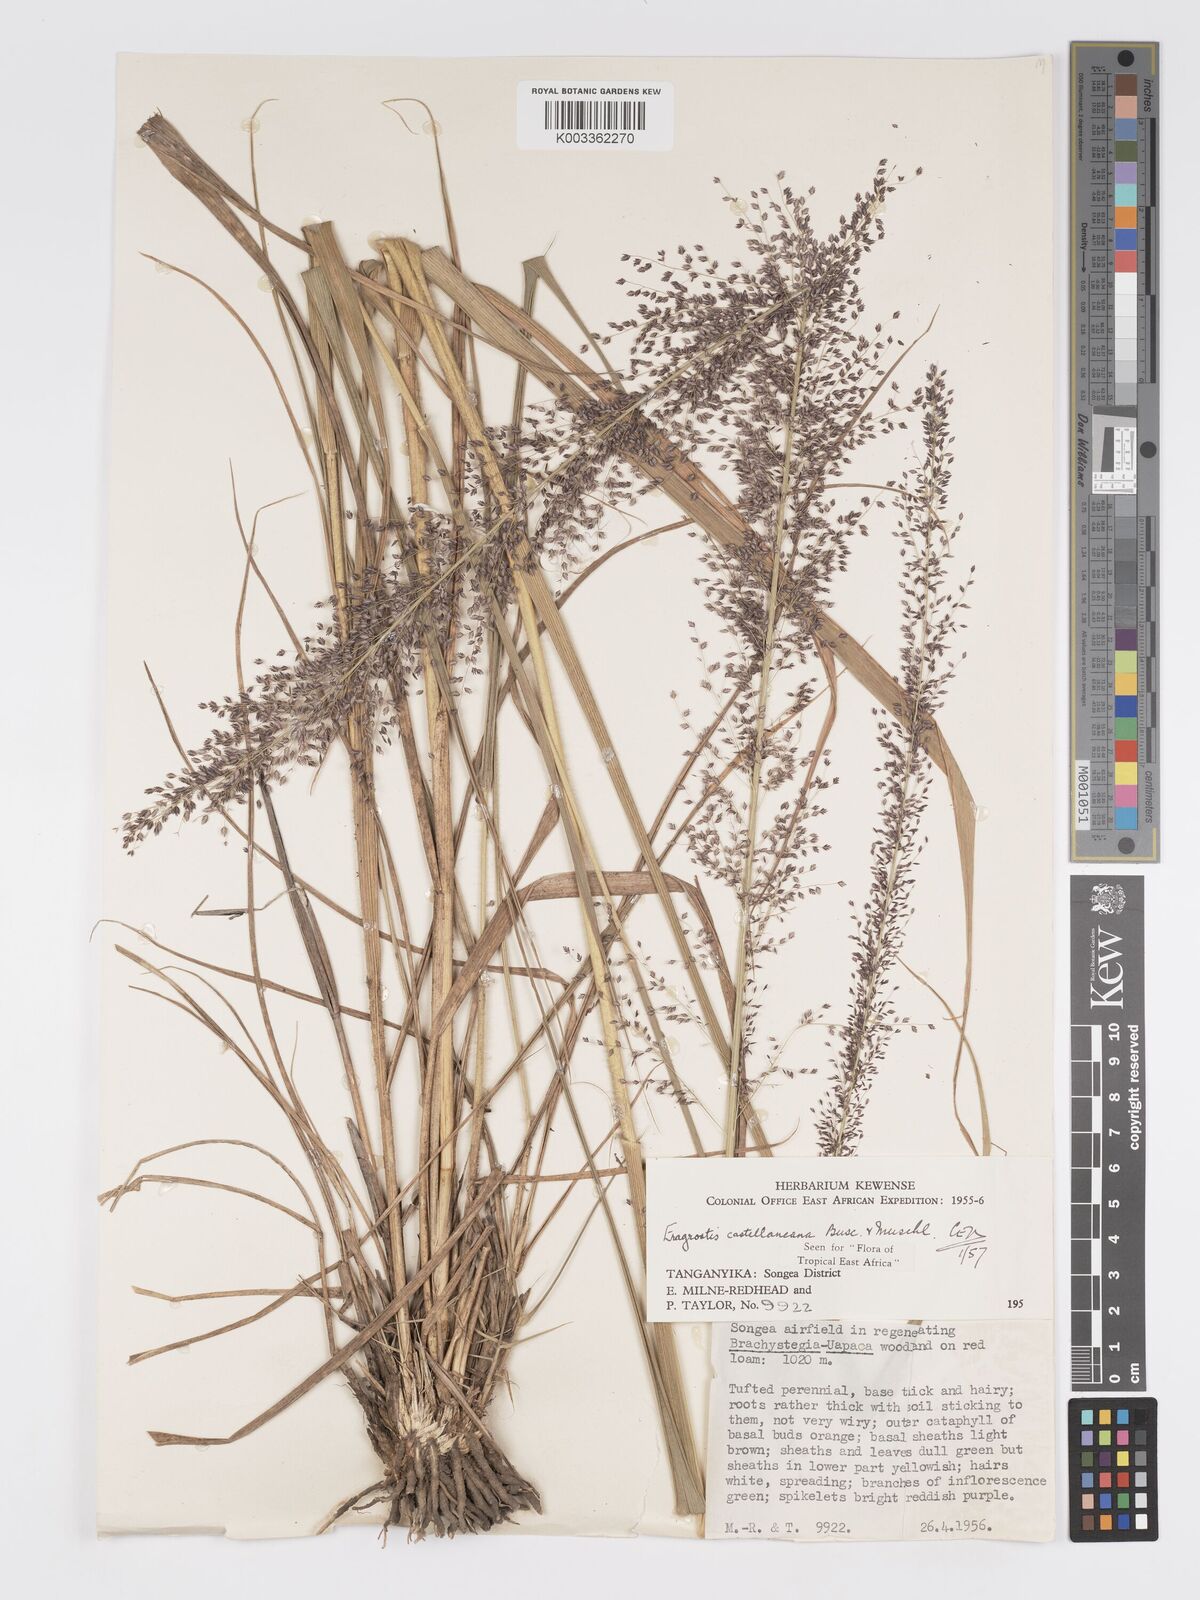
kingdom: Plantae
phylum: Tracheophyta
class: Liliopsida
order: Poales
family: Poaceae
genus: Eragrostis
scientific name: Eragrostis castellaneana
